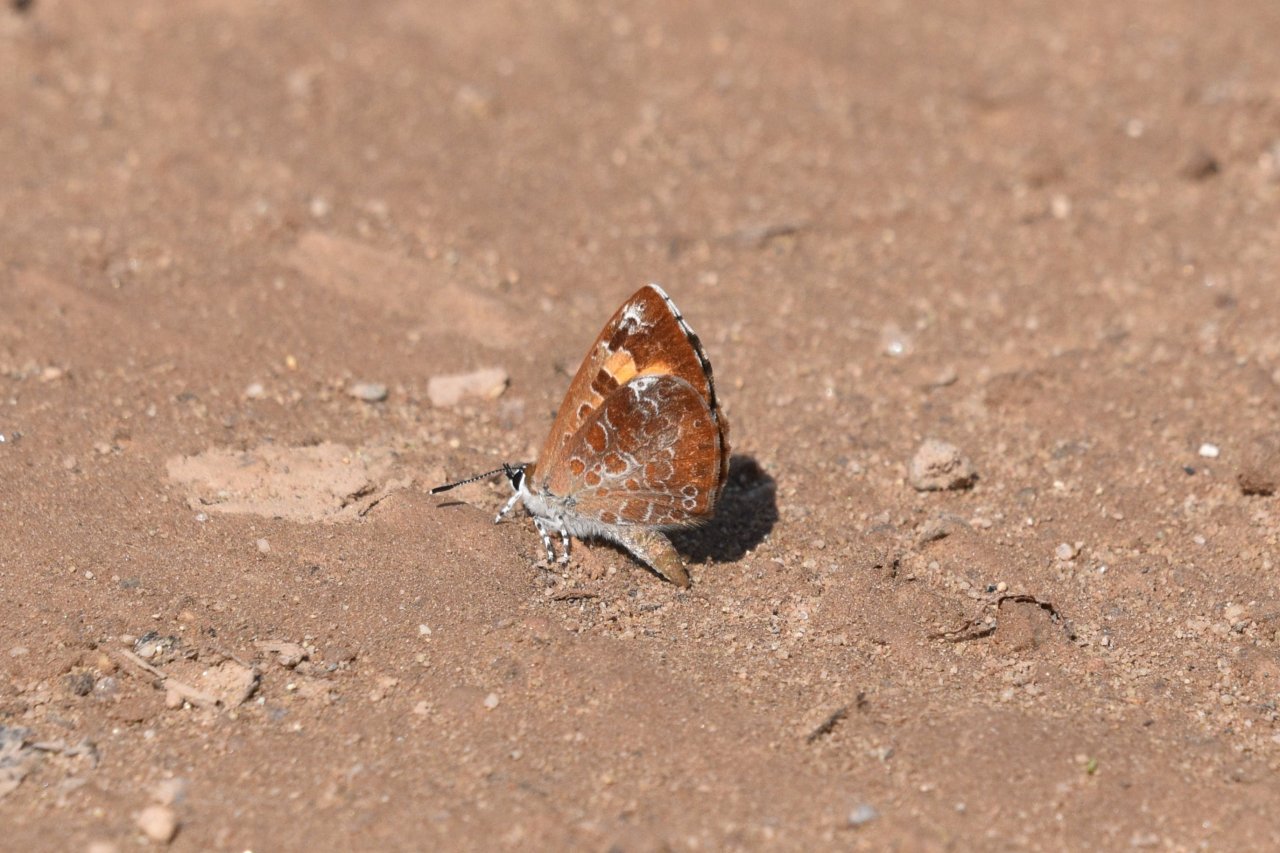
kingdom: Animalia
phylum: Arthropoda
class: Insecta
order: Lepidoptera
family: Lycaenidae
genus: Feniseca
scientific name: Feniseca tarquinius
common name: Harvester
